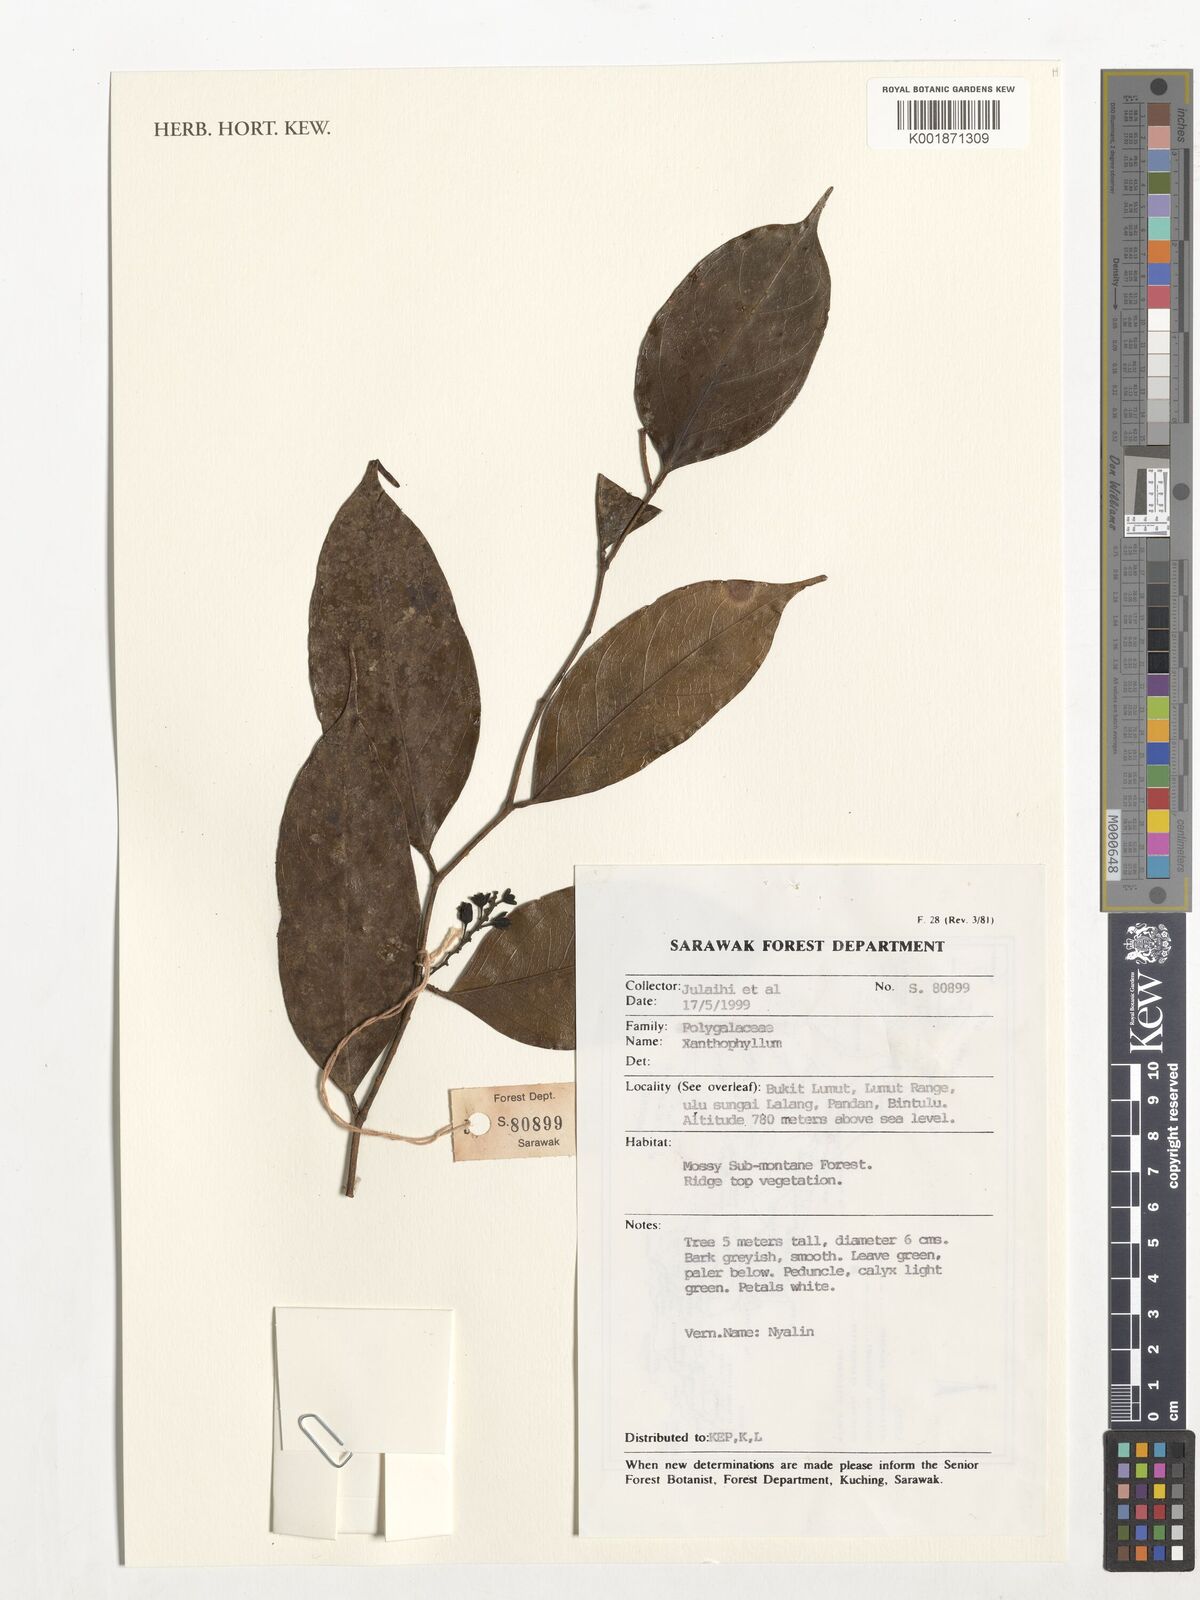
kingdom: Plantae
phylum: Tracheophyta
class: Magnoliopsida
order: Fabales
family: Polygalaceae
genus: Xanthophyllum
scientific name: Xanthophyllum
